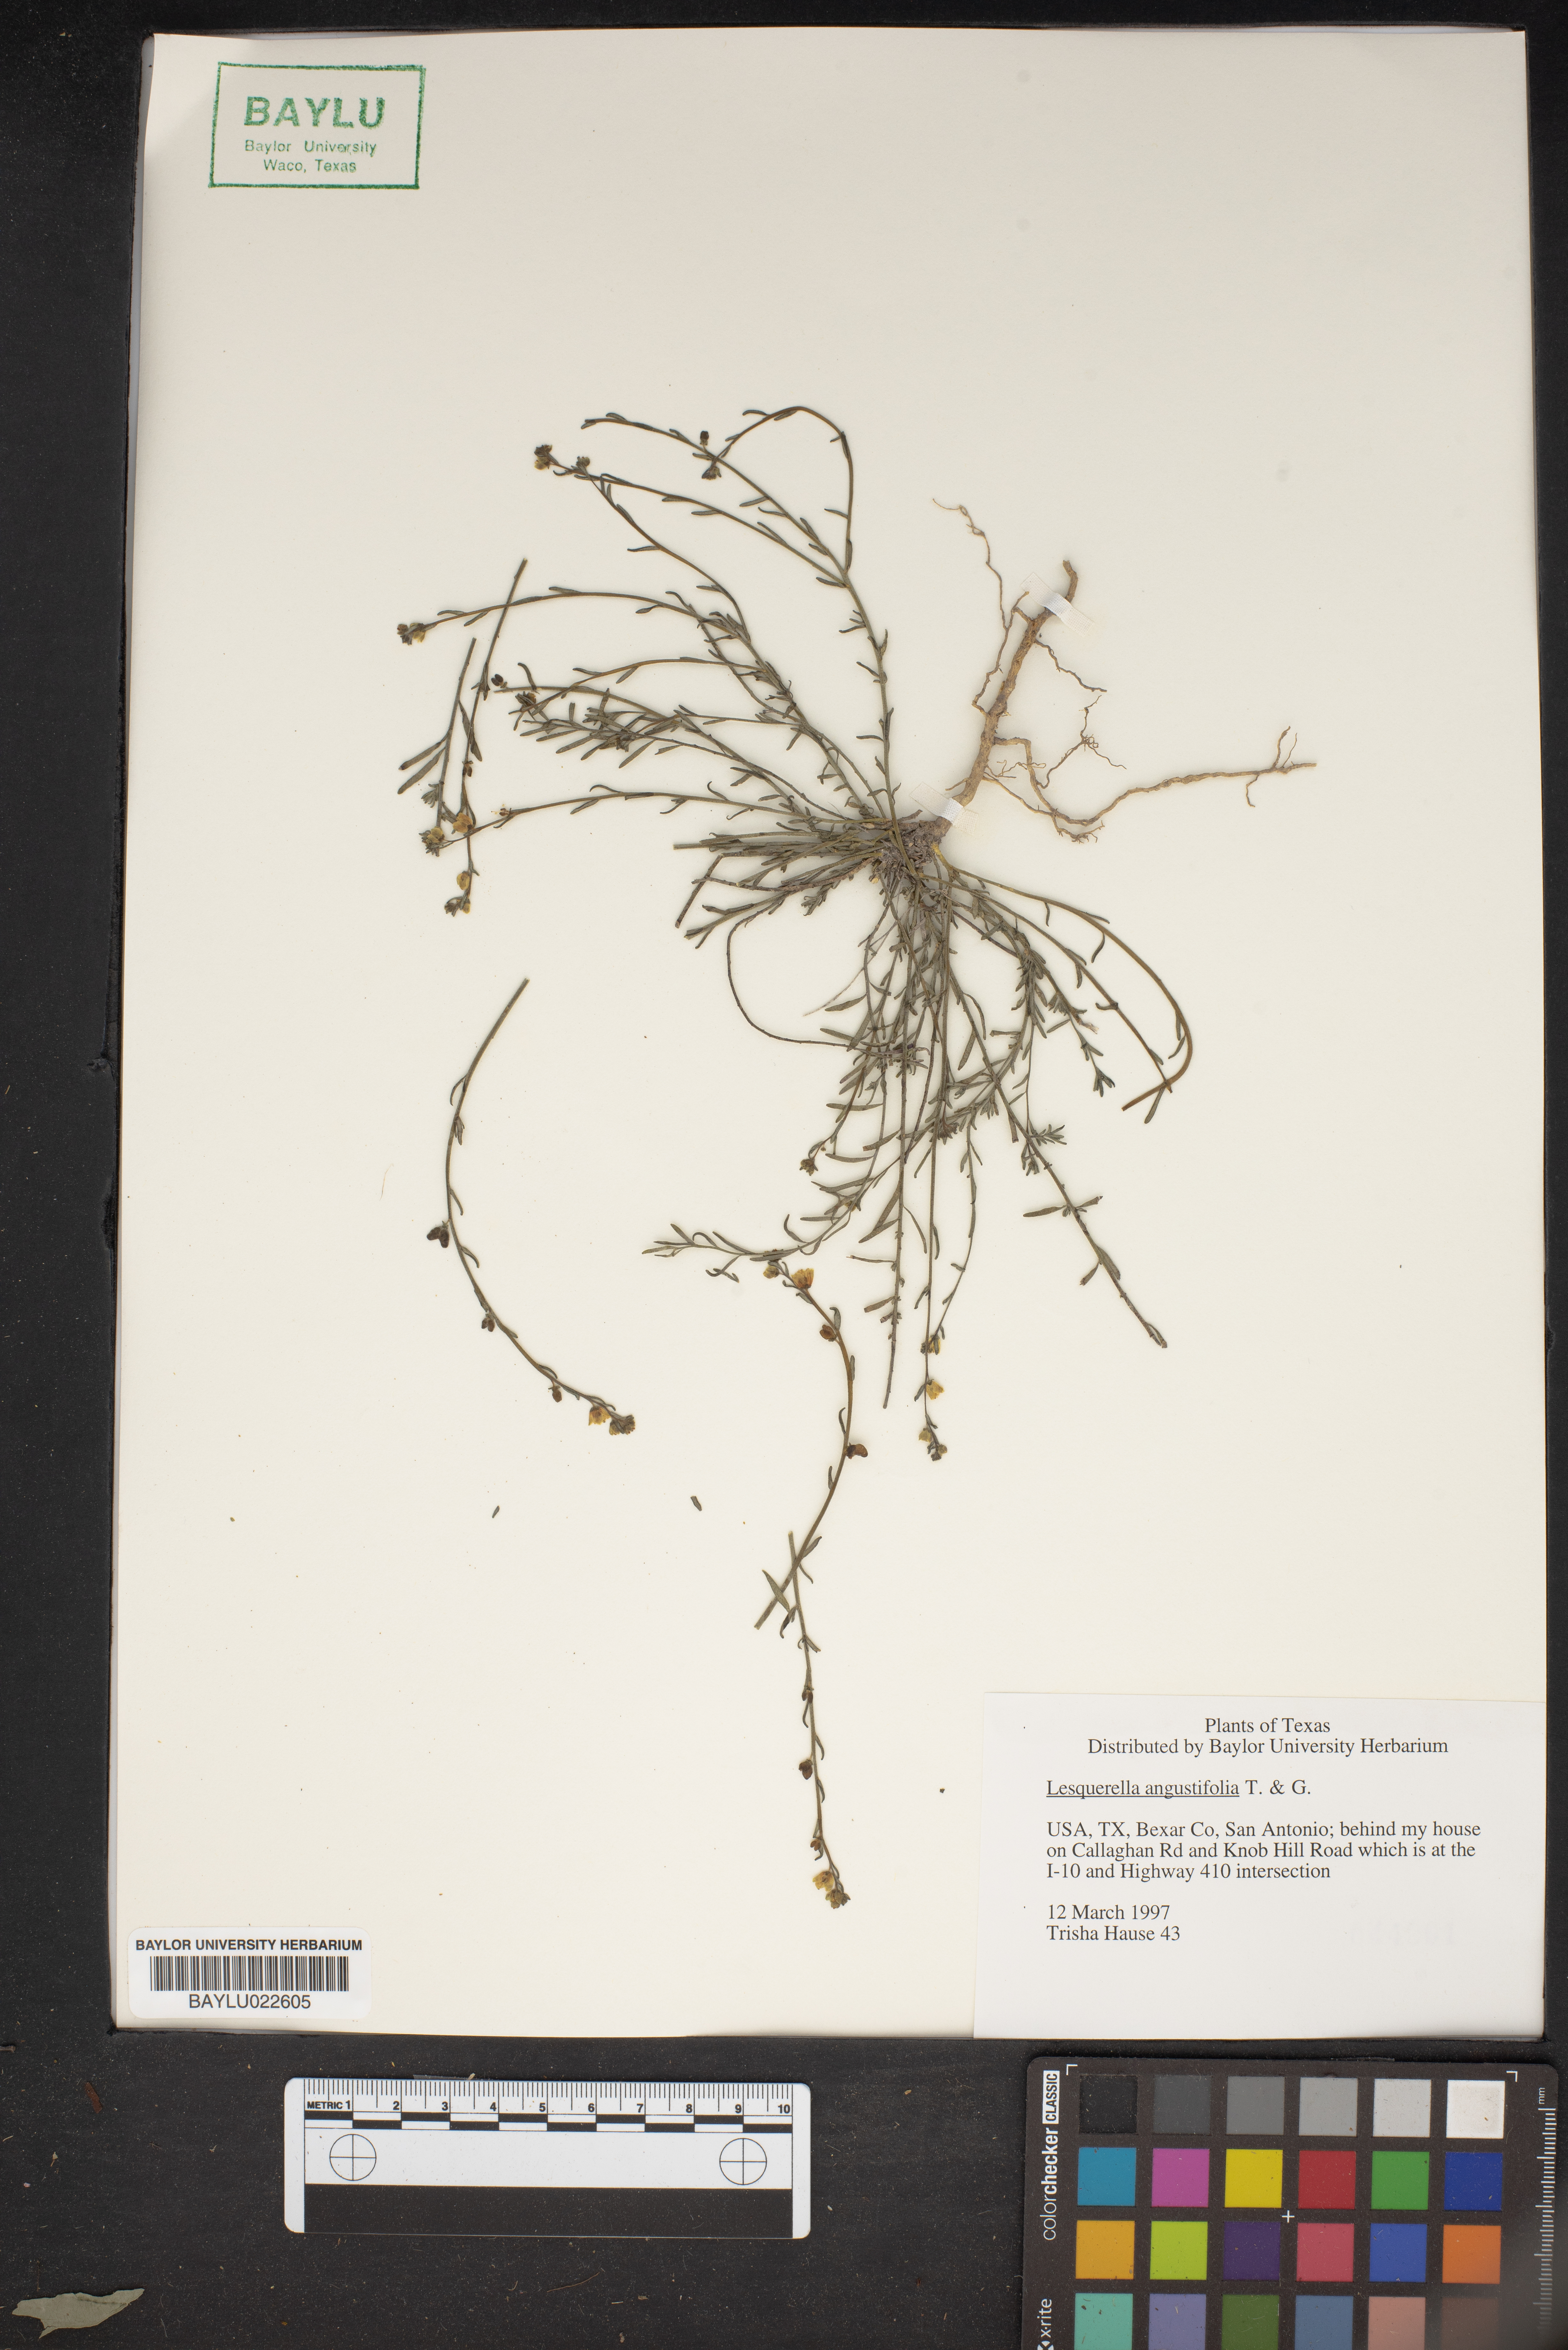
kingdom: Plantae
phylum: Tracheophyta
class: Magnoliopsida
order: Brassicales
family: Brassicaceae
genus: Physaria
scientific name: Physaria angustifolia
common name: Threadleaf bladderpod
